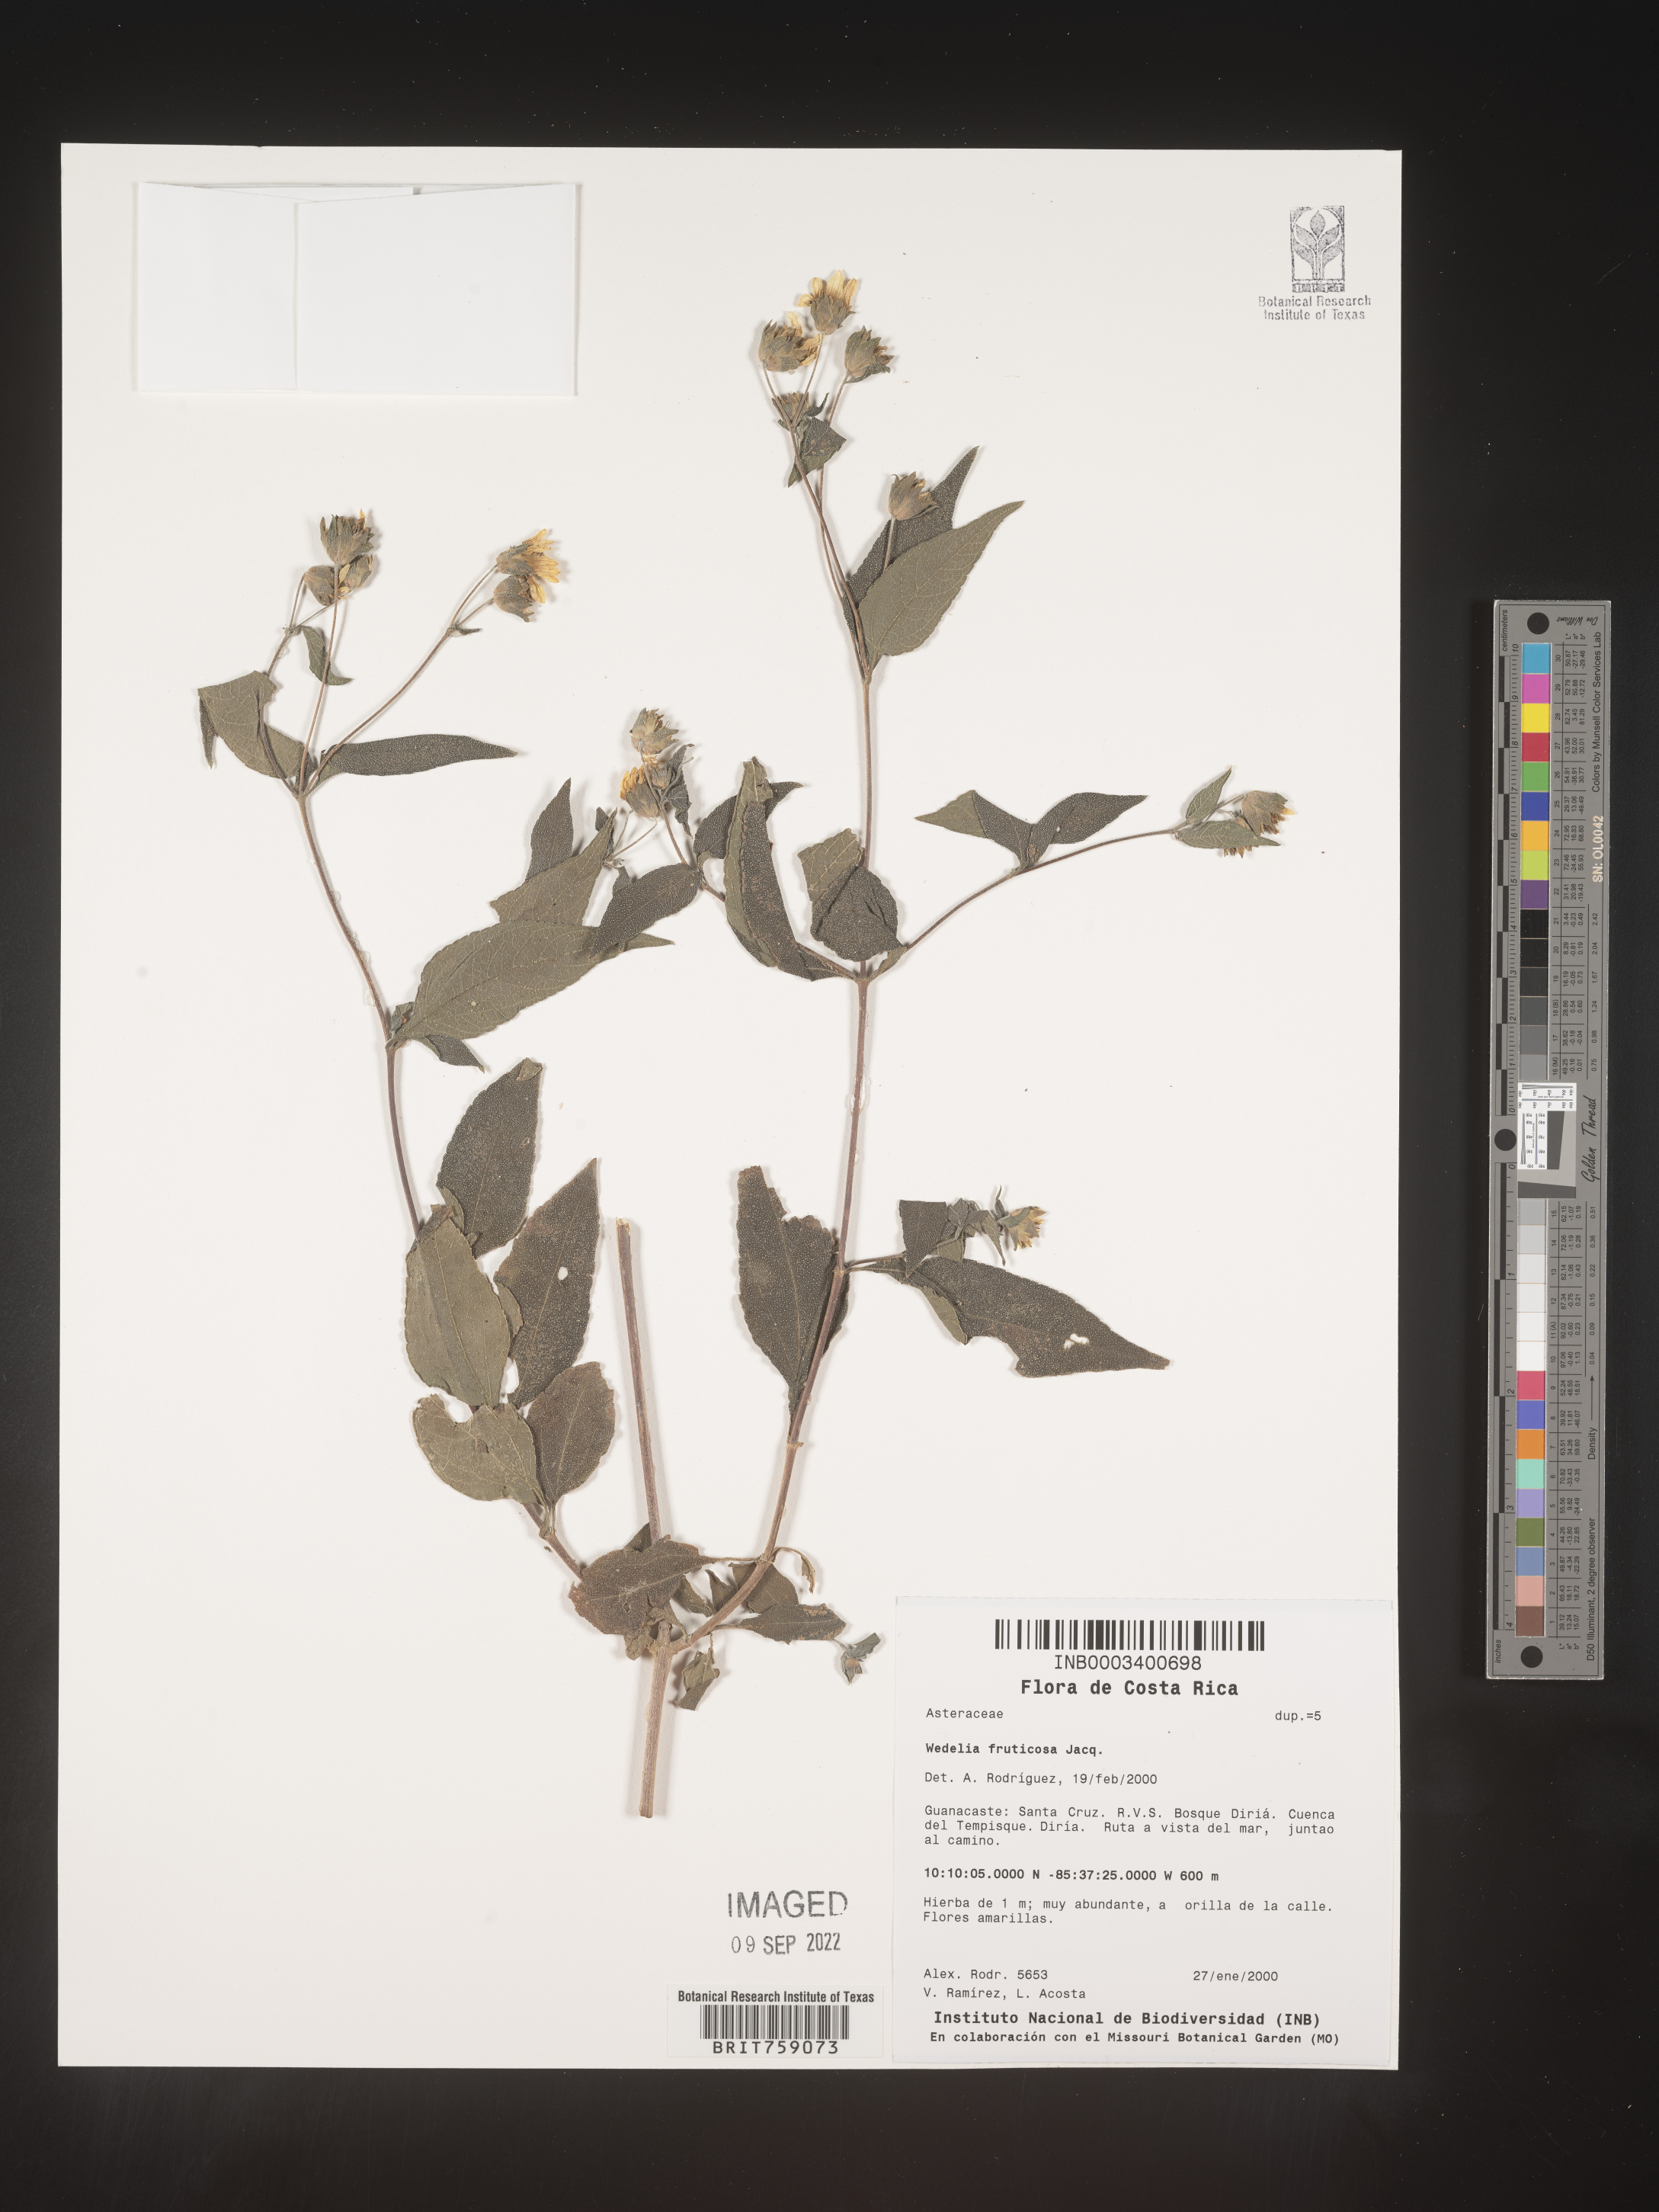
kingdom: Plantae
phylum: Tracheophyta
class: Magnoliopsida
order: Asterales
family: Asteraceae
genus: Wedelia
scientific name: Wedelia
